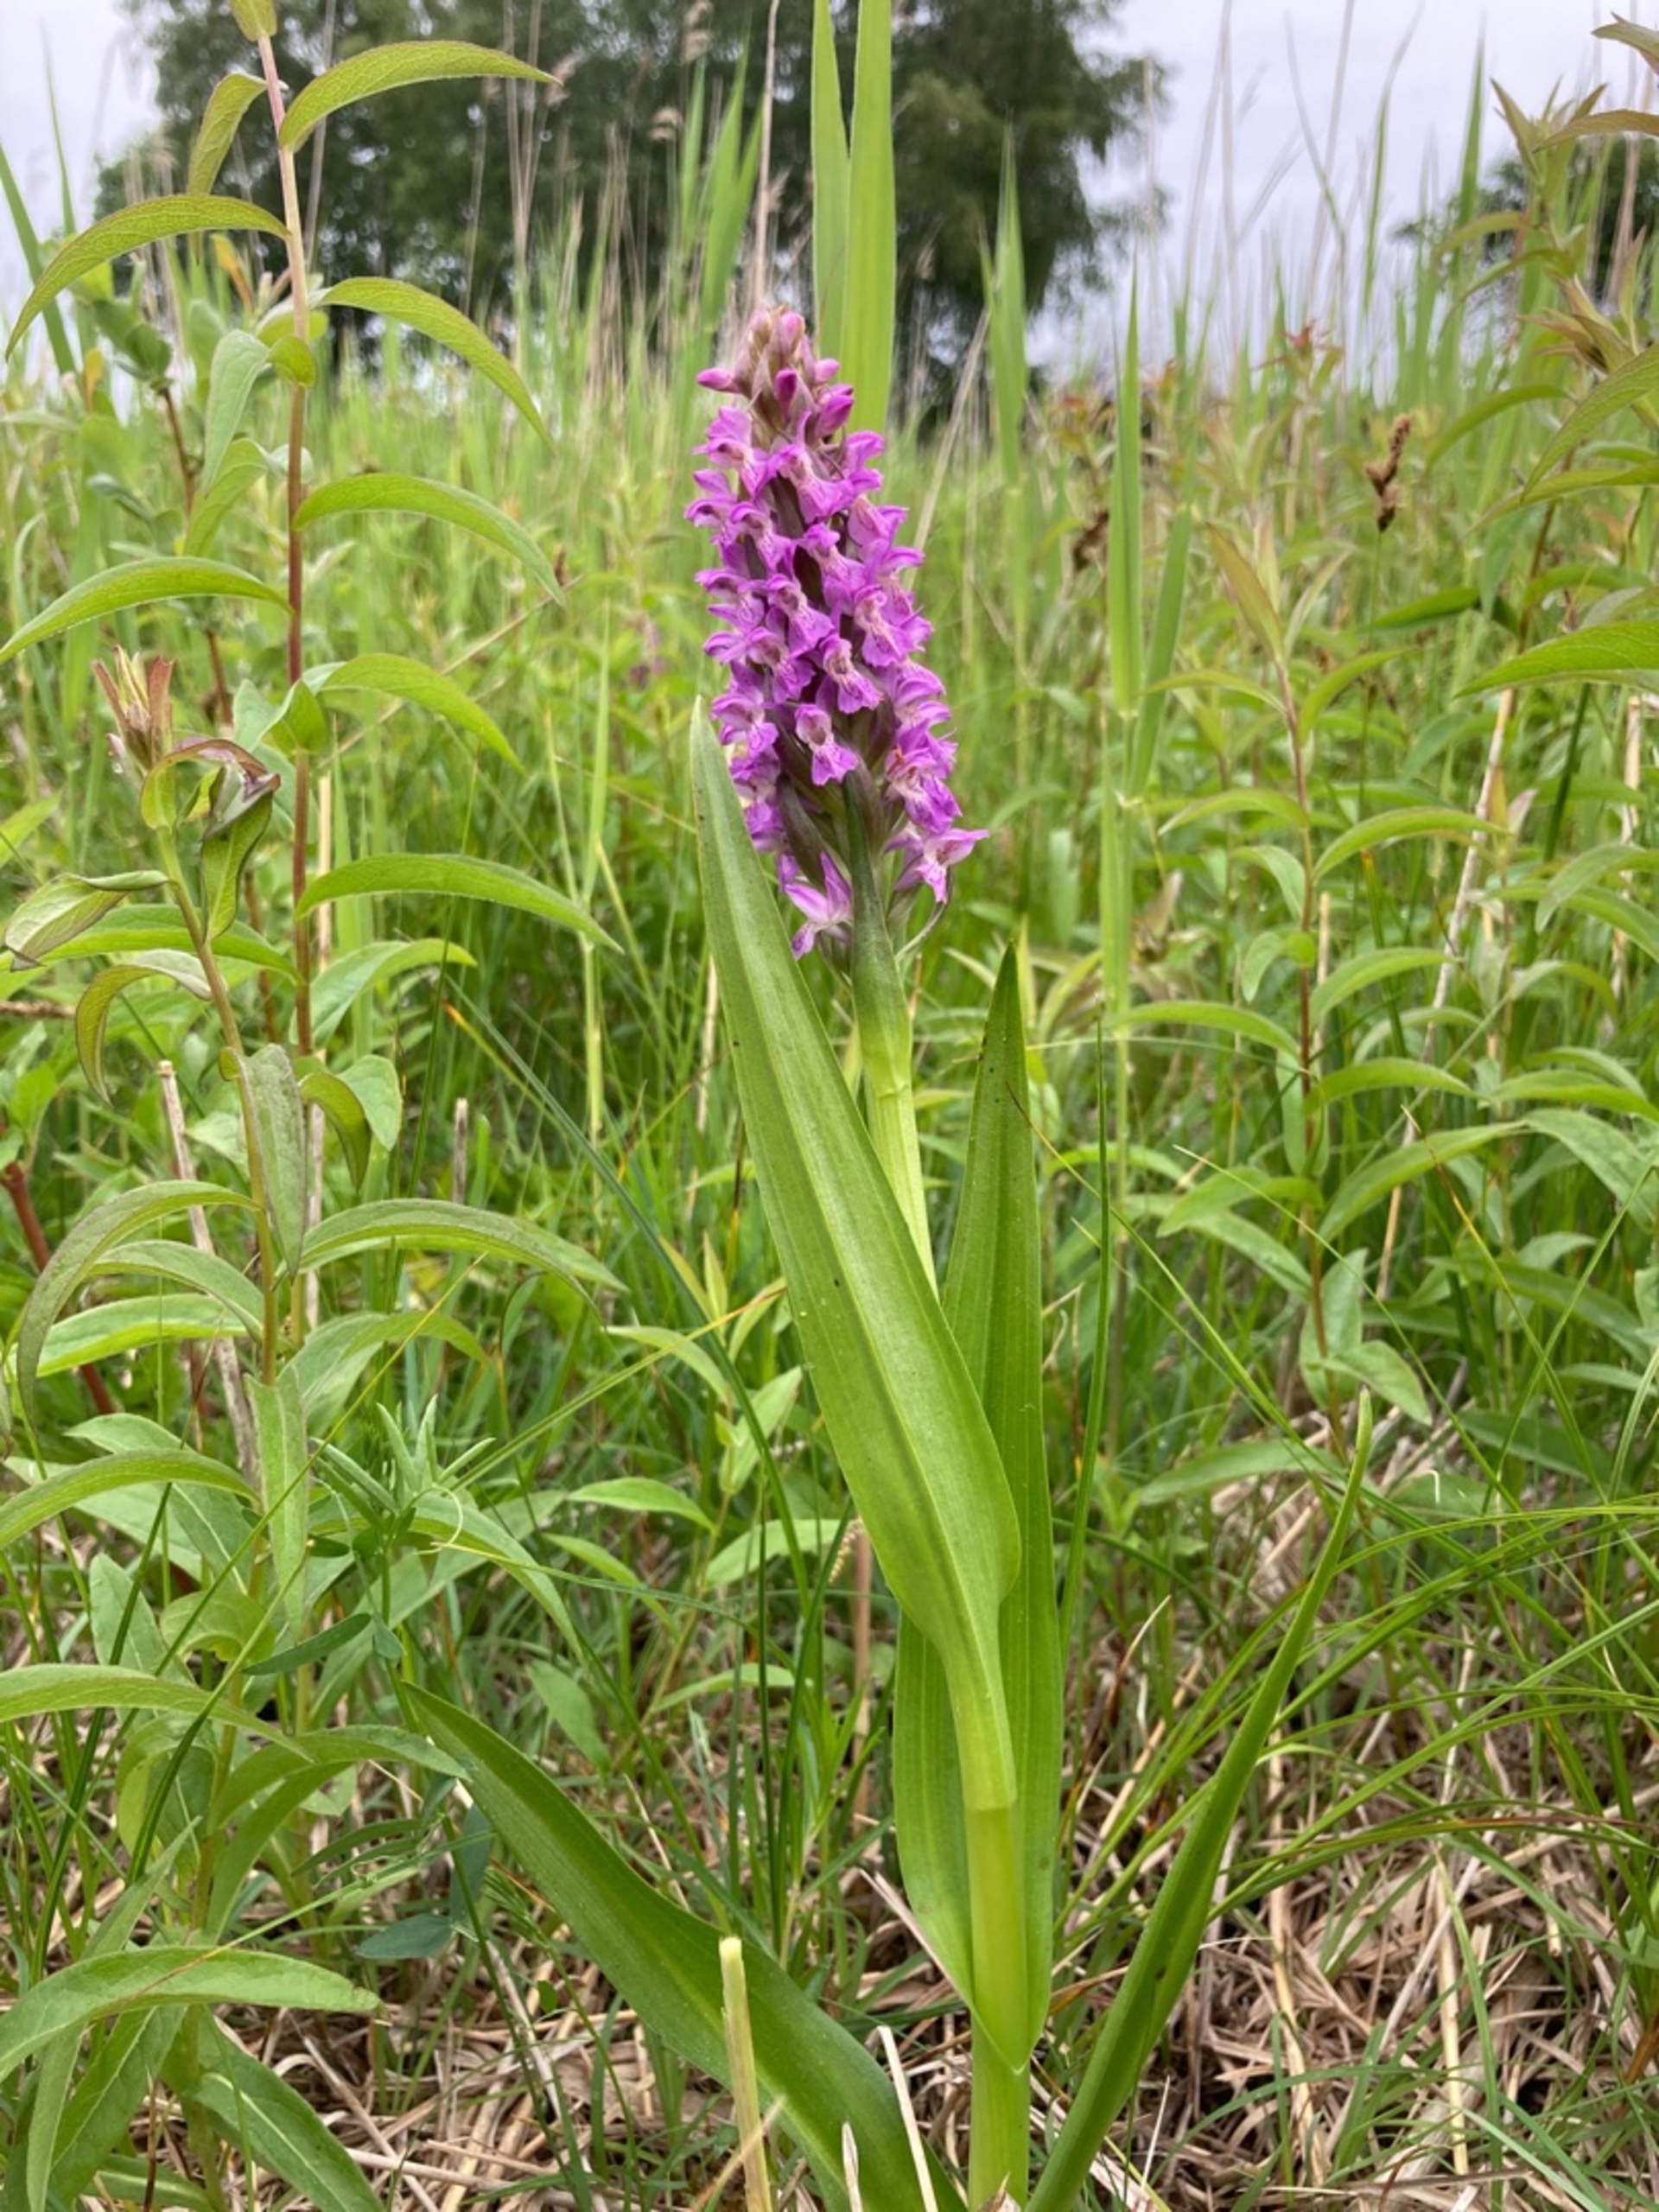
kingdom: Plantae
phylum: Tracheophyta
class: Liliopsida
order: Asparagales
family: Orchidaceae
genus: Dactylorhiza
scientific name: Dactylorhiza incarnata
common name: Kødfarvet gøgeurt
